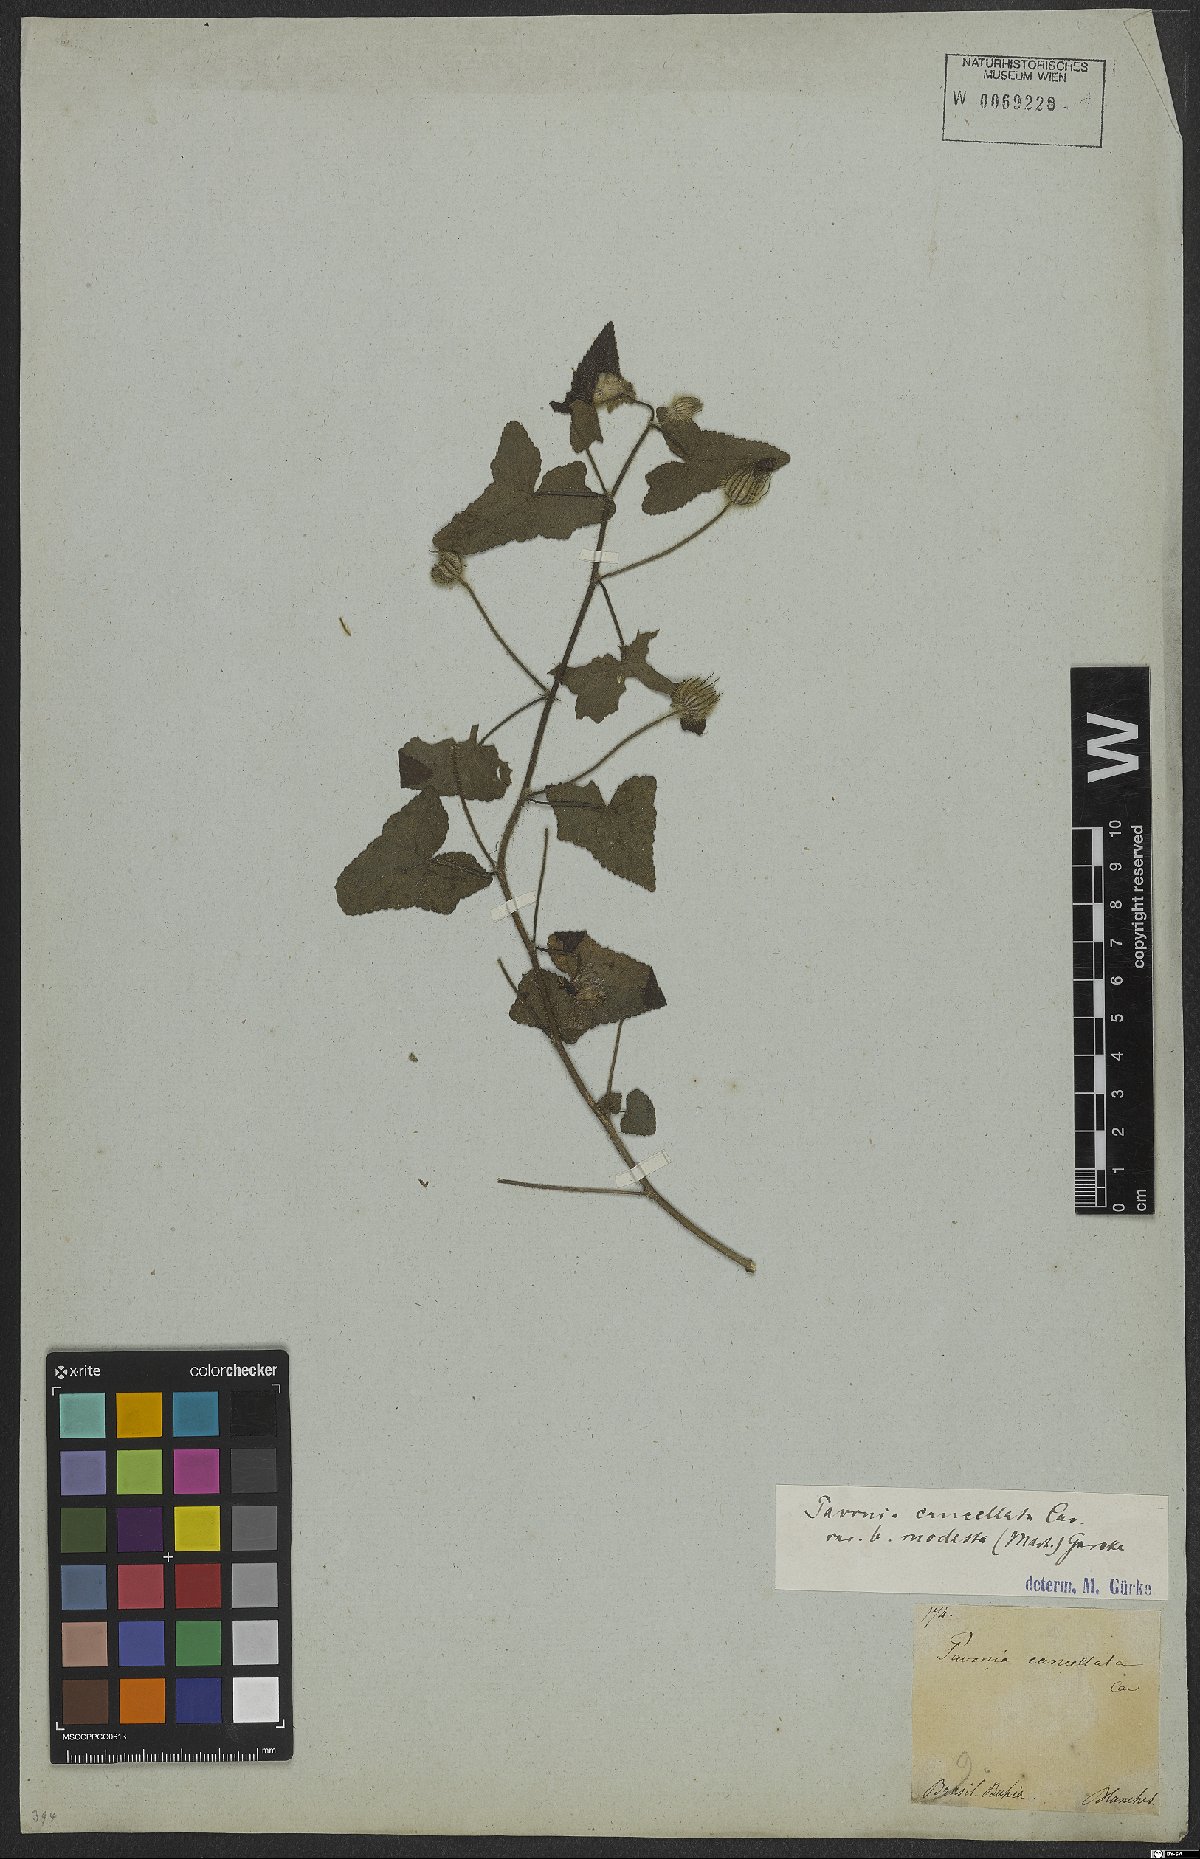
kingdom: Plantae
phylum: Tracheophyta
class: Magnoliopsida
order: Malvales
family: Malvaceae
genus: Pavonia
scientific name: Pavonia cancellata
